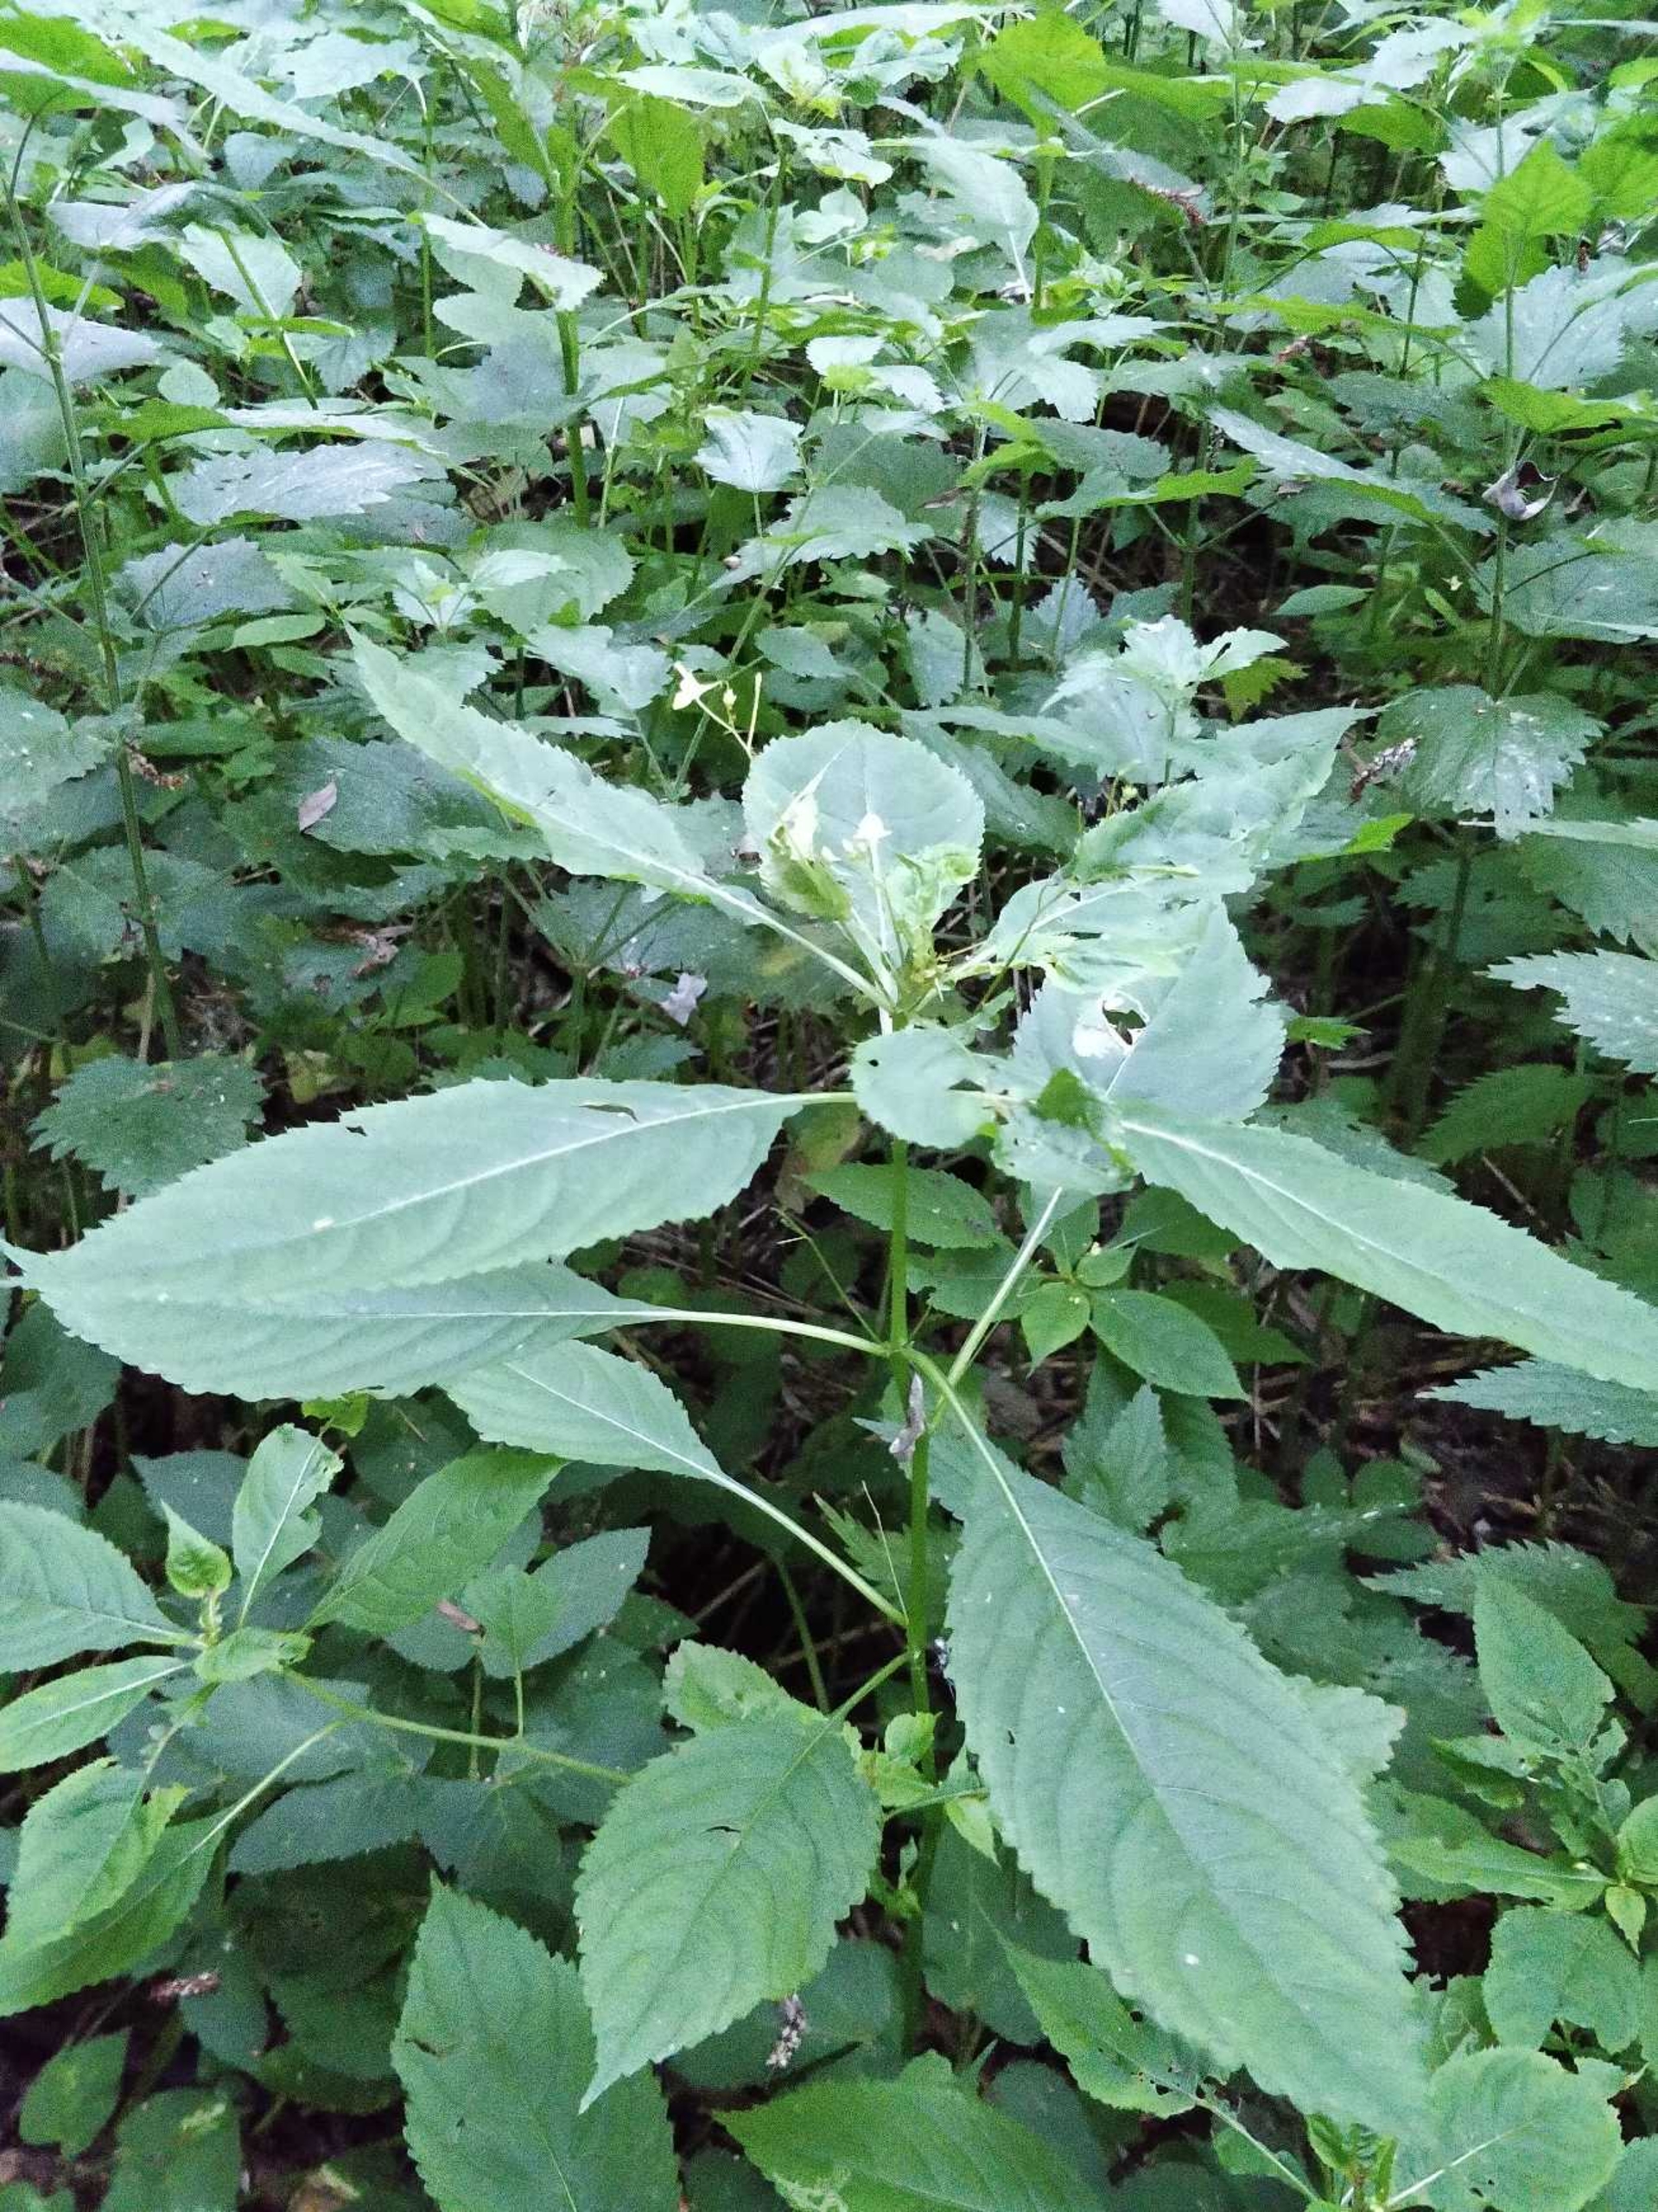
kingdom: Plantae
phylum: Tracheophyta
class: Magnoliopsida
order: Ericales
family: Balsaminaceae
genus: Impatiens
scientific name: Impatiens parviflora
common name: Småblomstret balsamin
